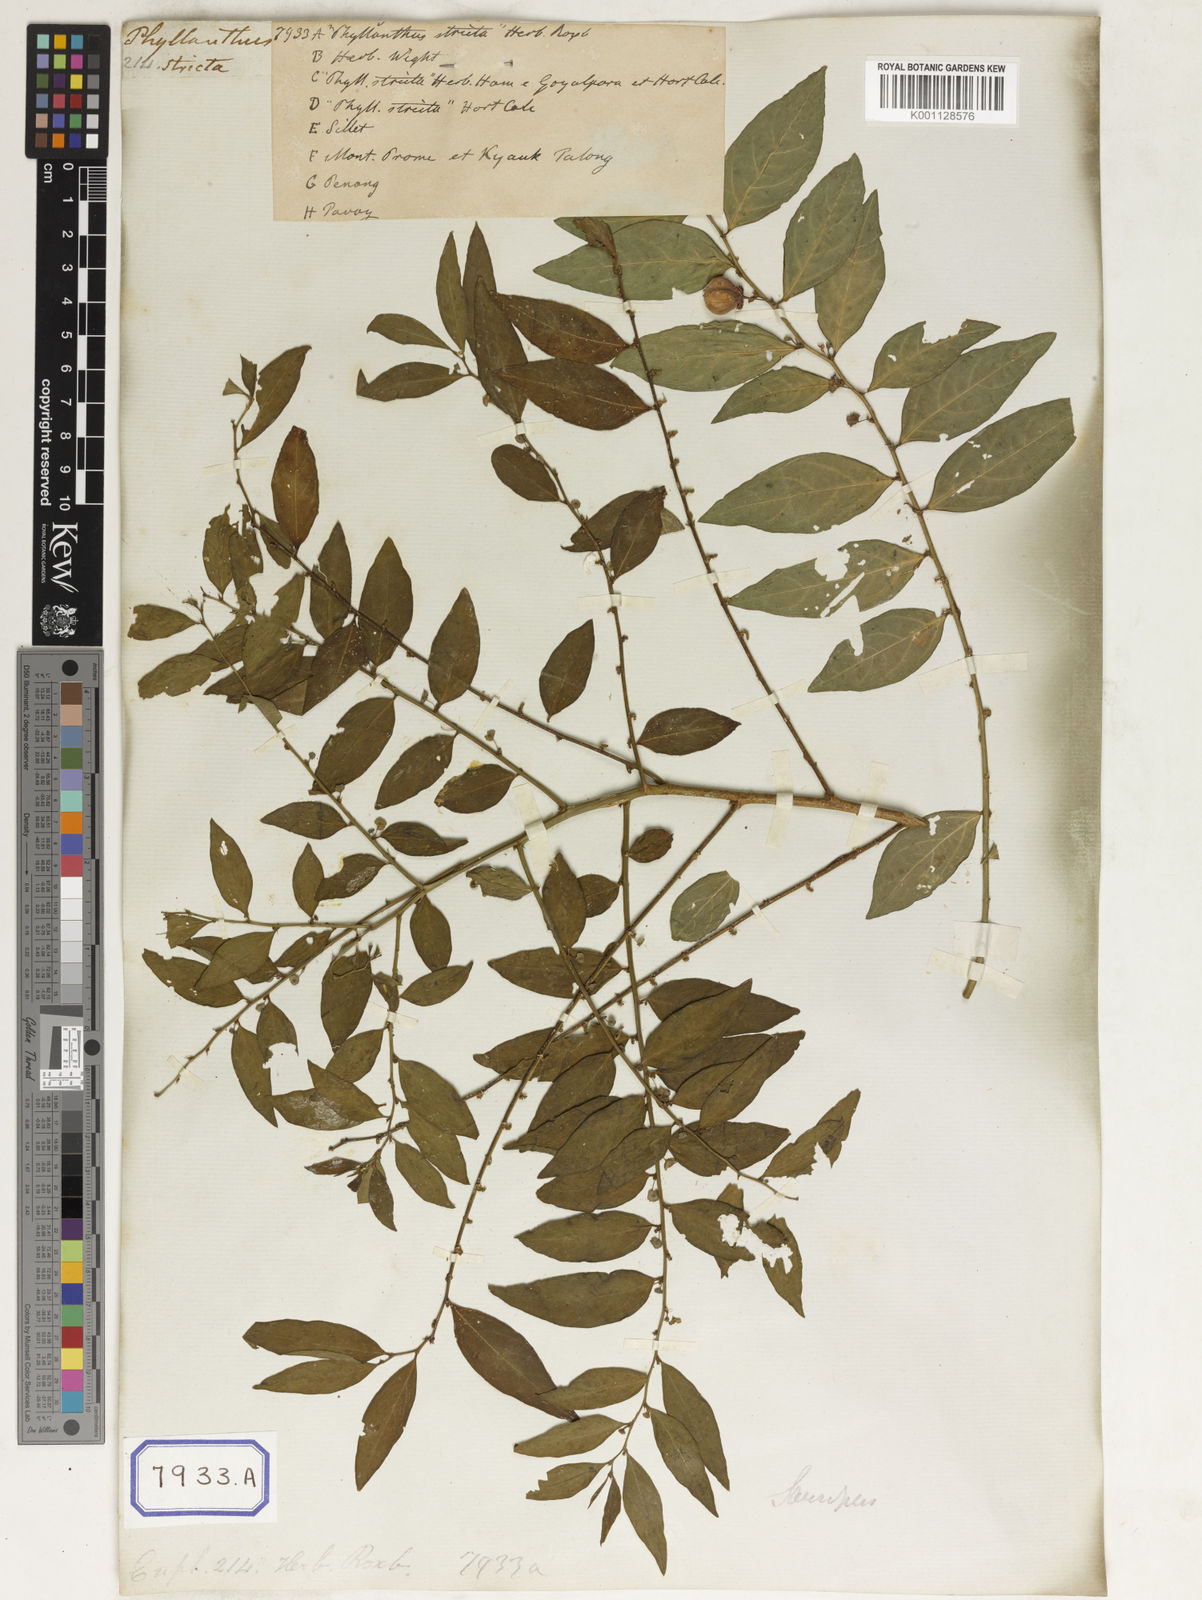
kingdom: Plantae
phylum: Tracheophyta
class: Magnoliopsida
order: Malpighiales
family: Euphorbiaceae
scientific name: Euphorbiaceae
